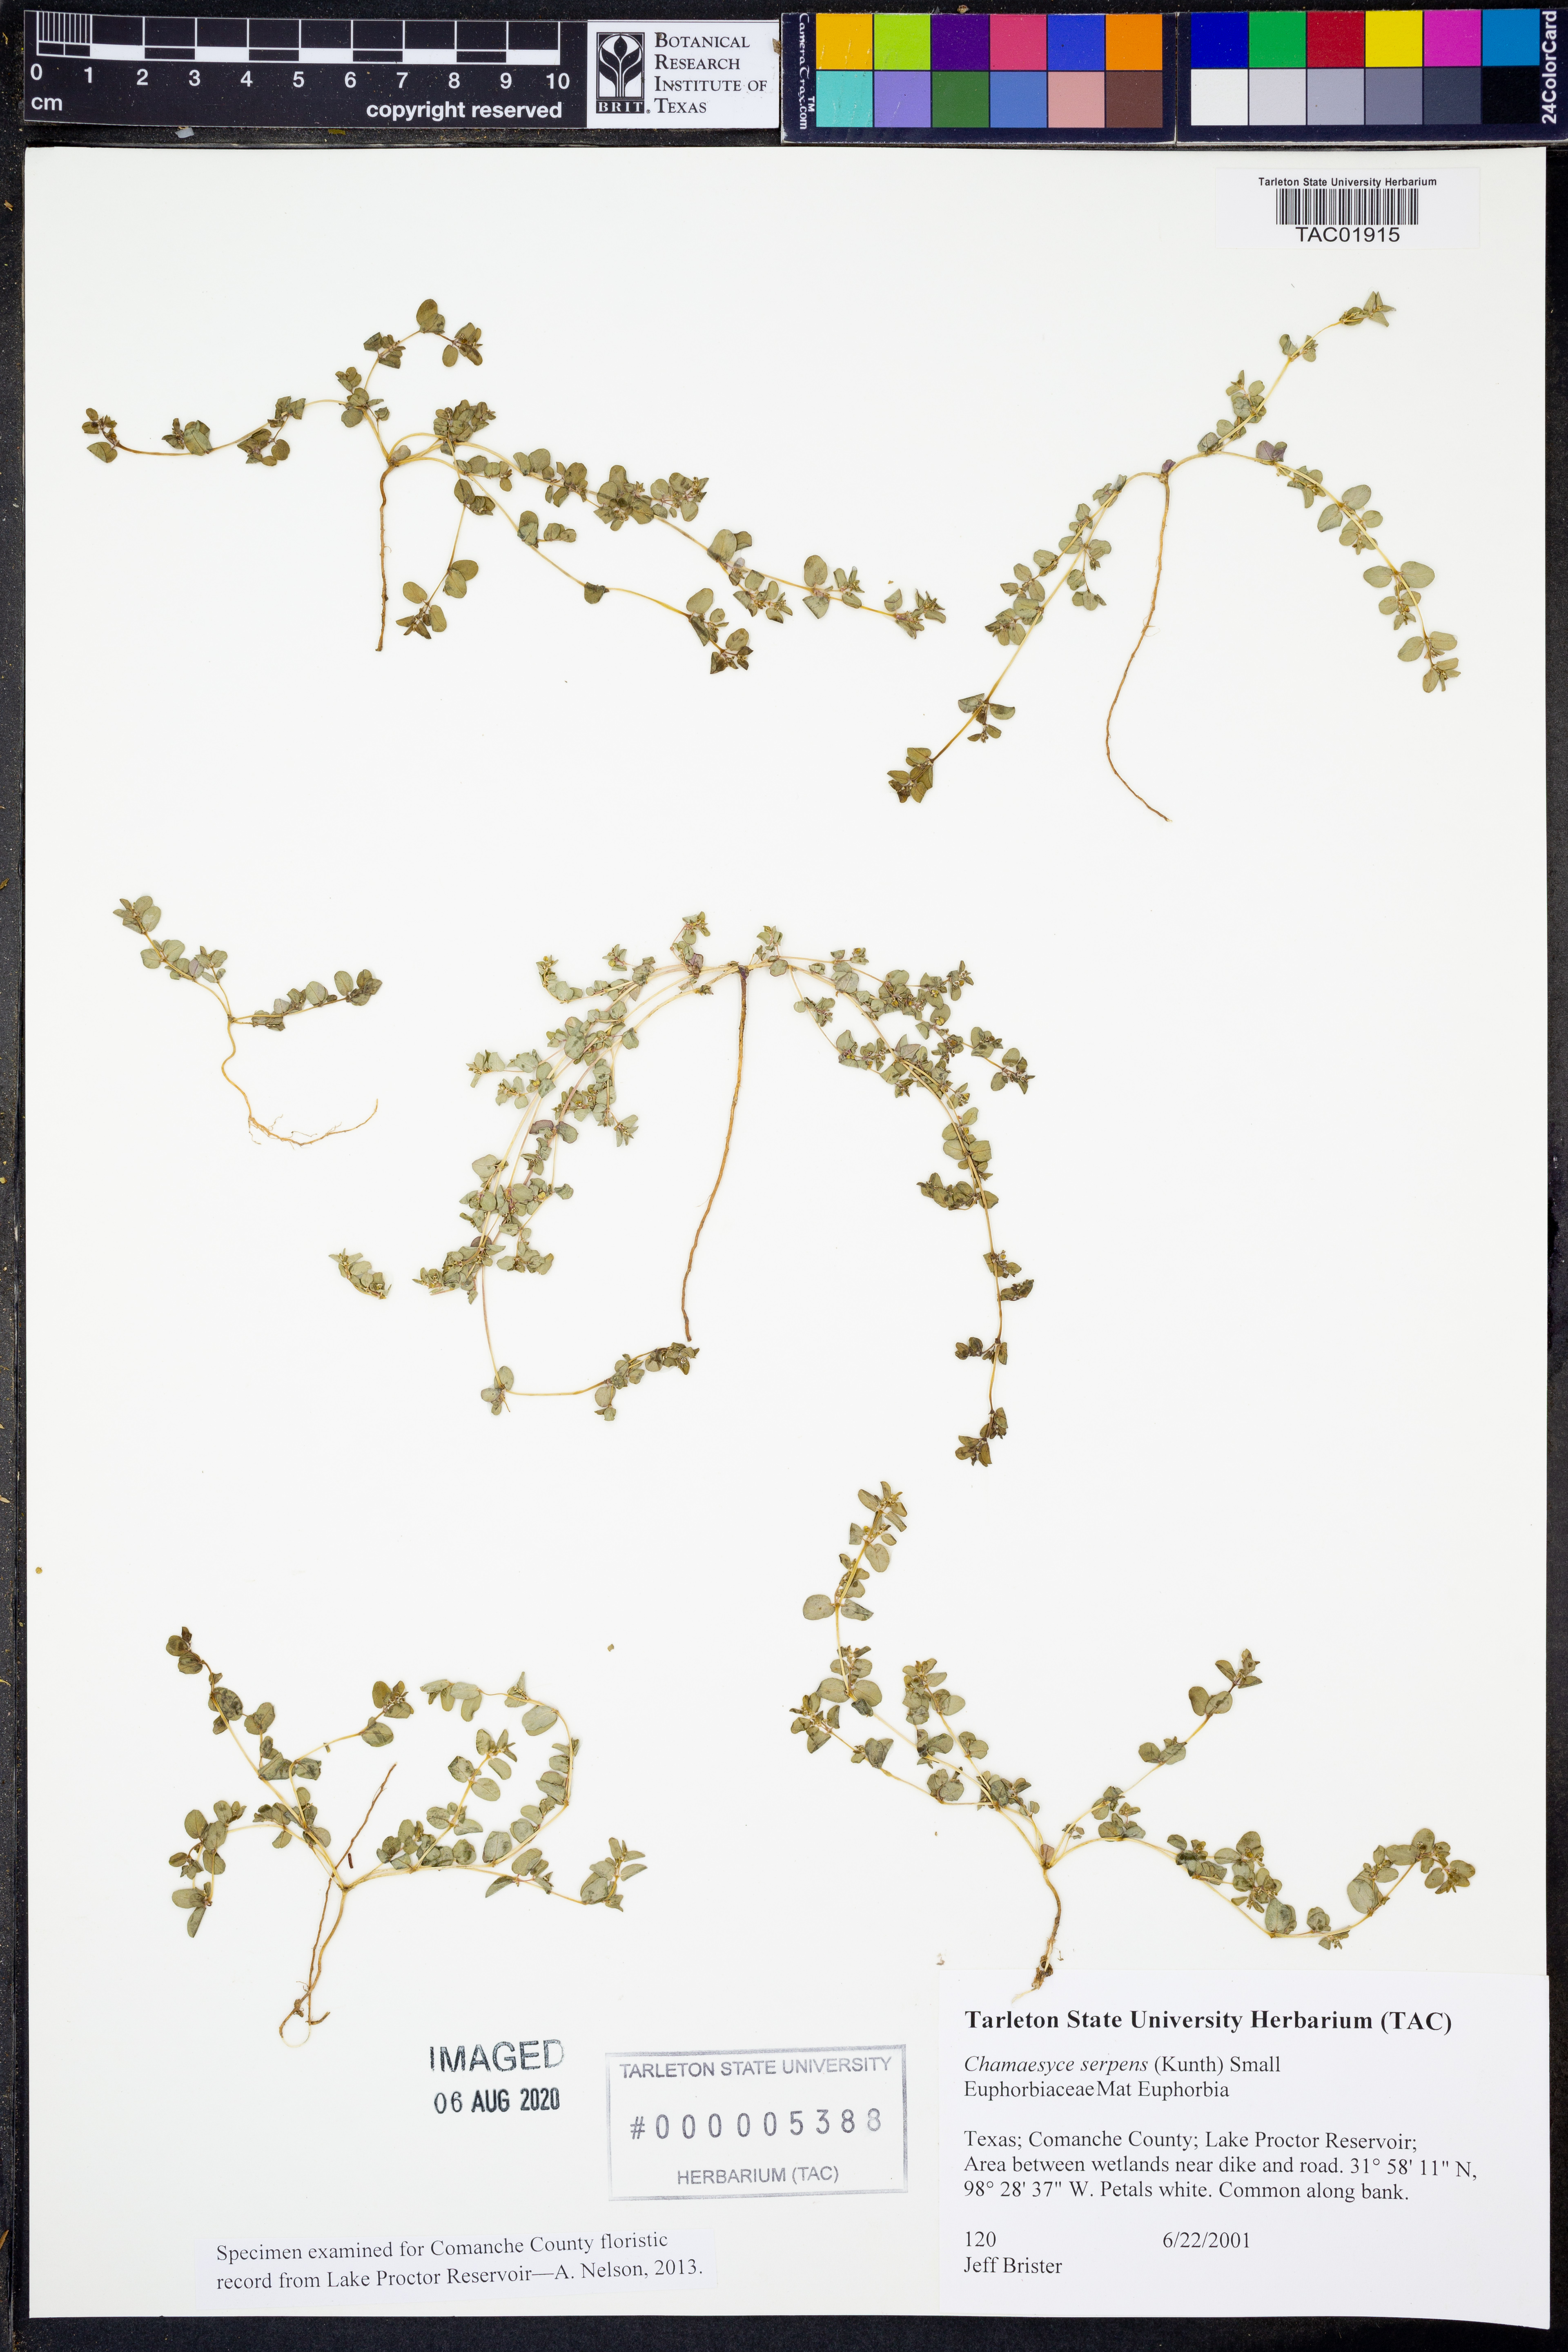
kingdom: Plantae
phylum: Tracheophyta
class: Magnoliopsida
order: Malpighiales
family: Euphorbiaceae
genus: Euphorbia
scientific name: Euphorbia serpens
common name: Matted sandmat
